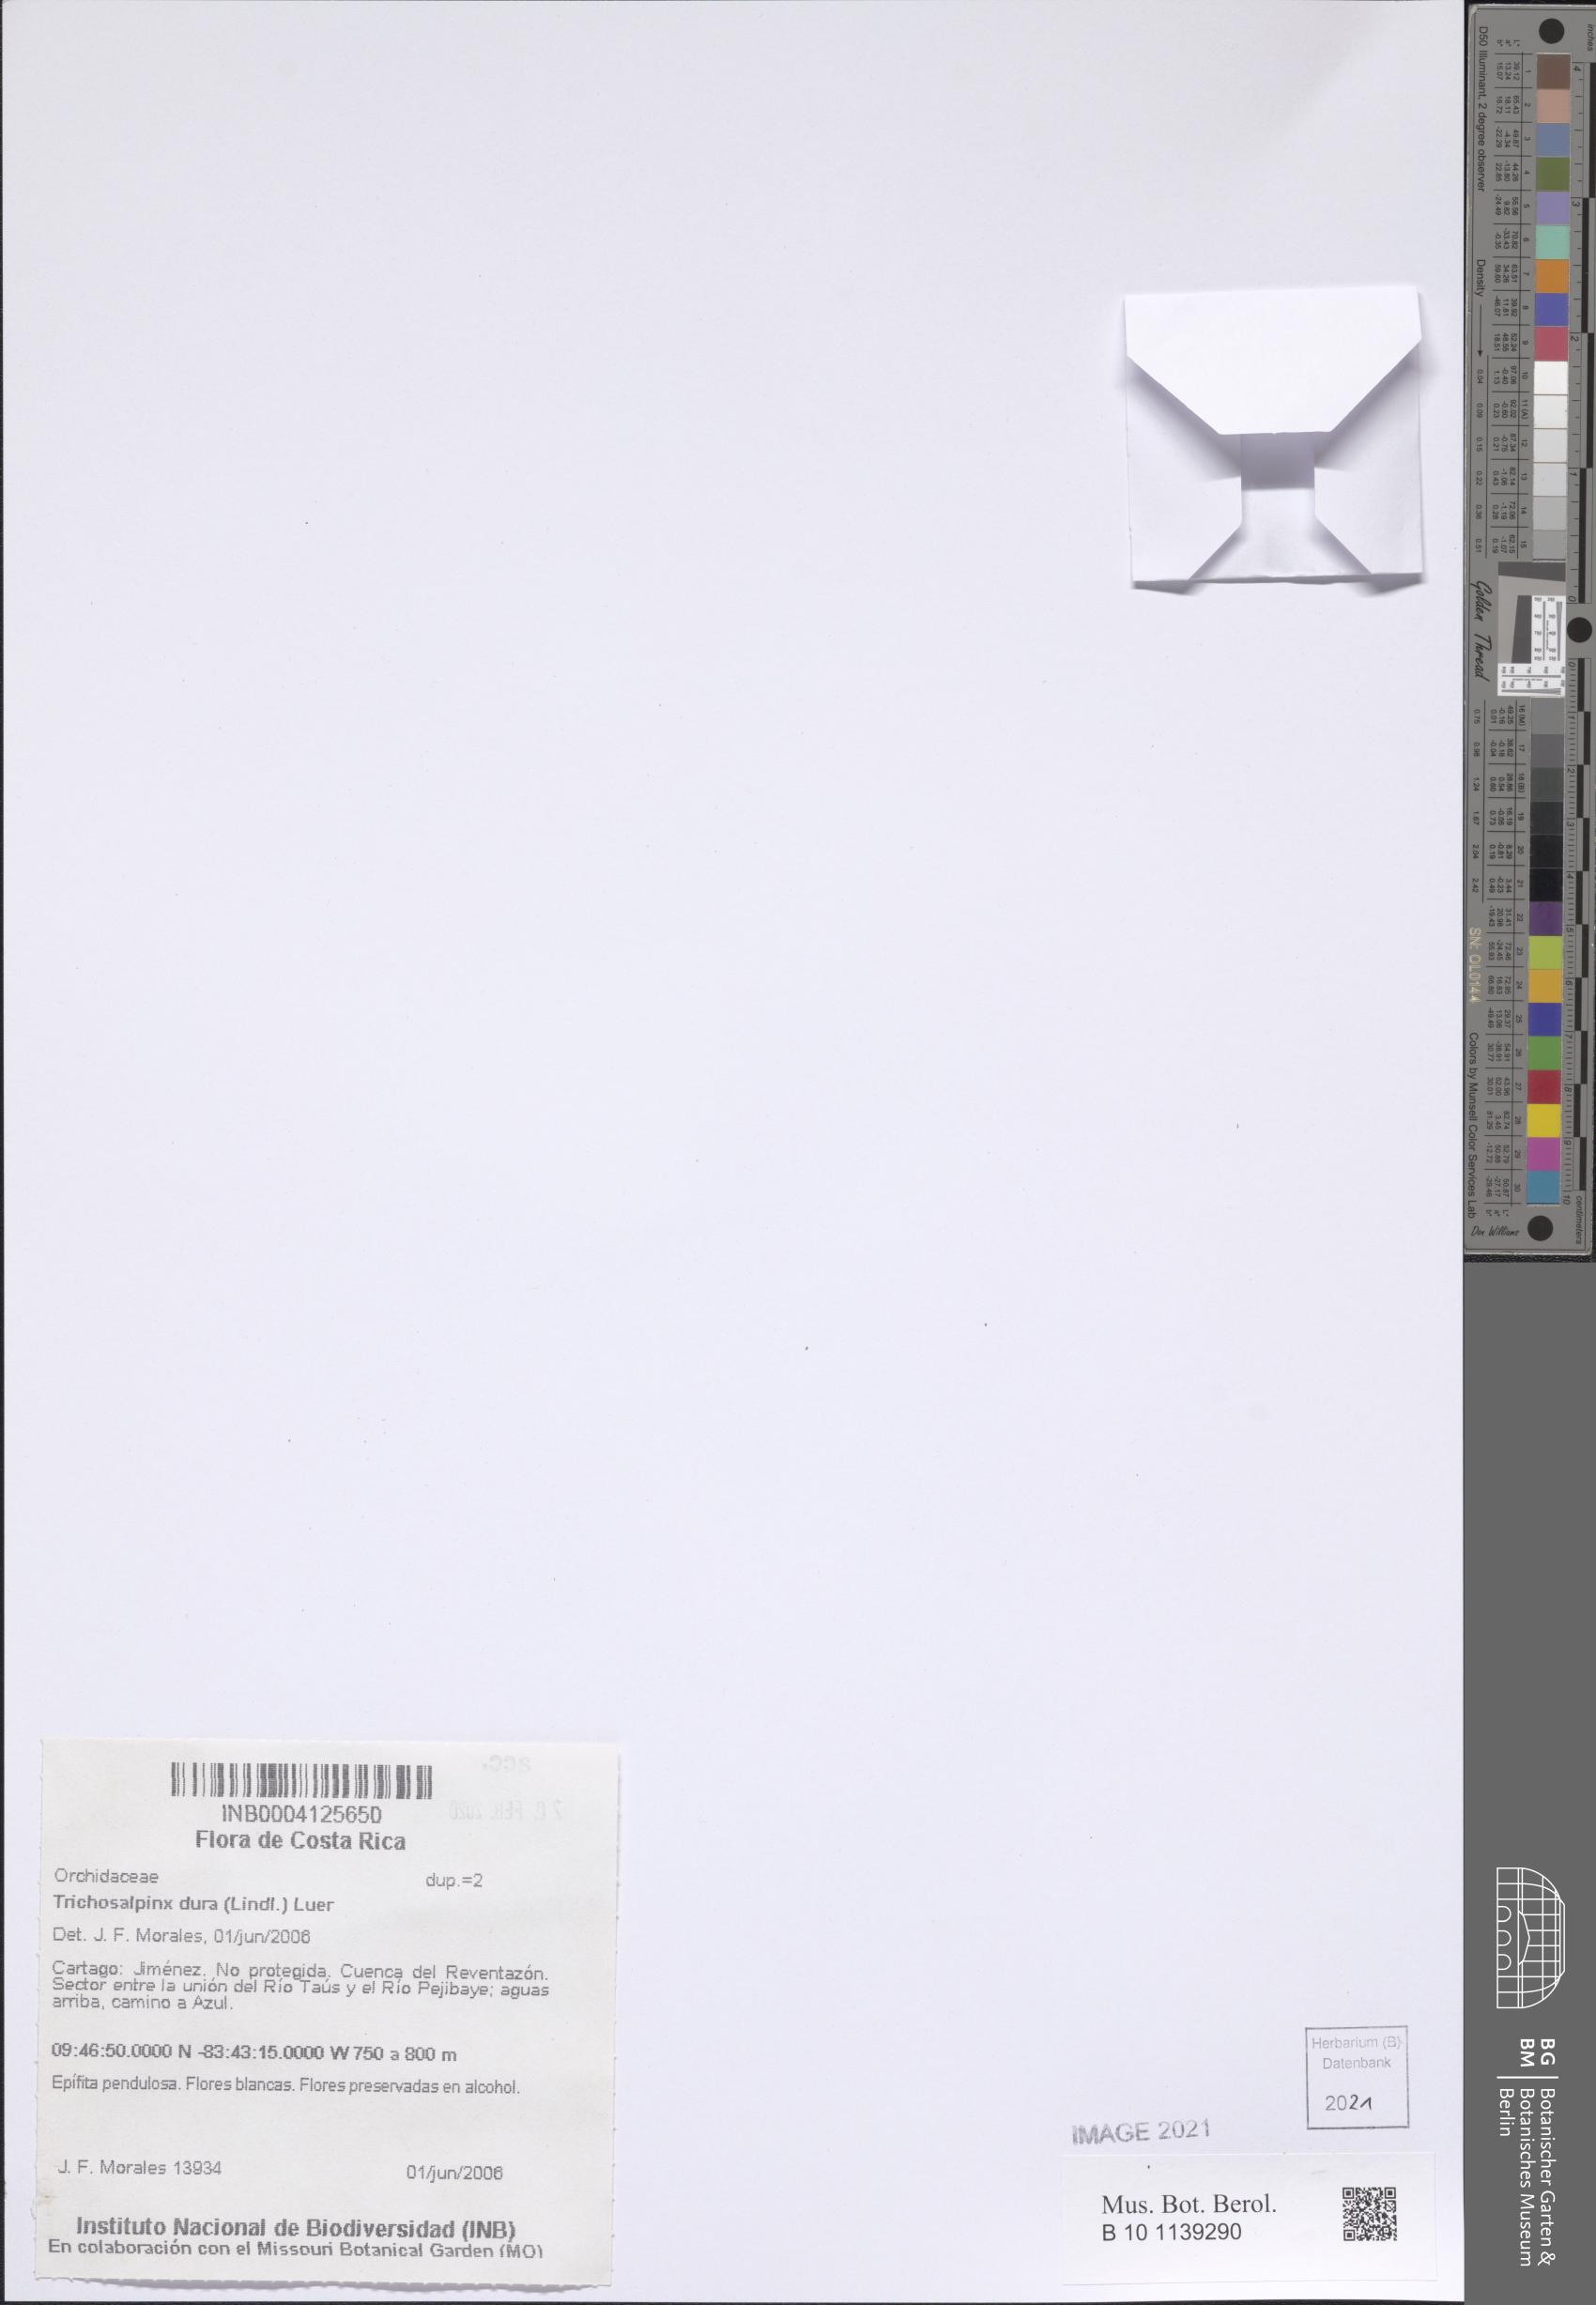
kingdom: Plantae
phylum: Tracheophyta
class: Liliopsida
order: Asparagales
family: Orchidaceae
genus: Trichosalpinx
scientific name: Trichosalpinx dura
